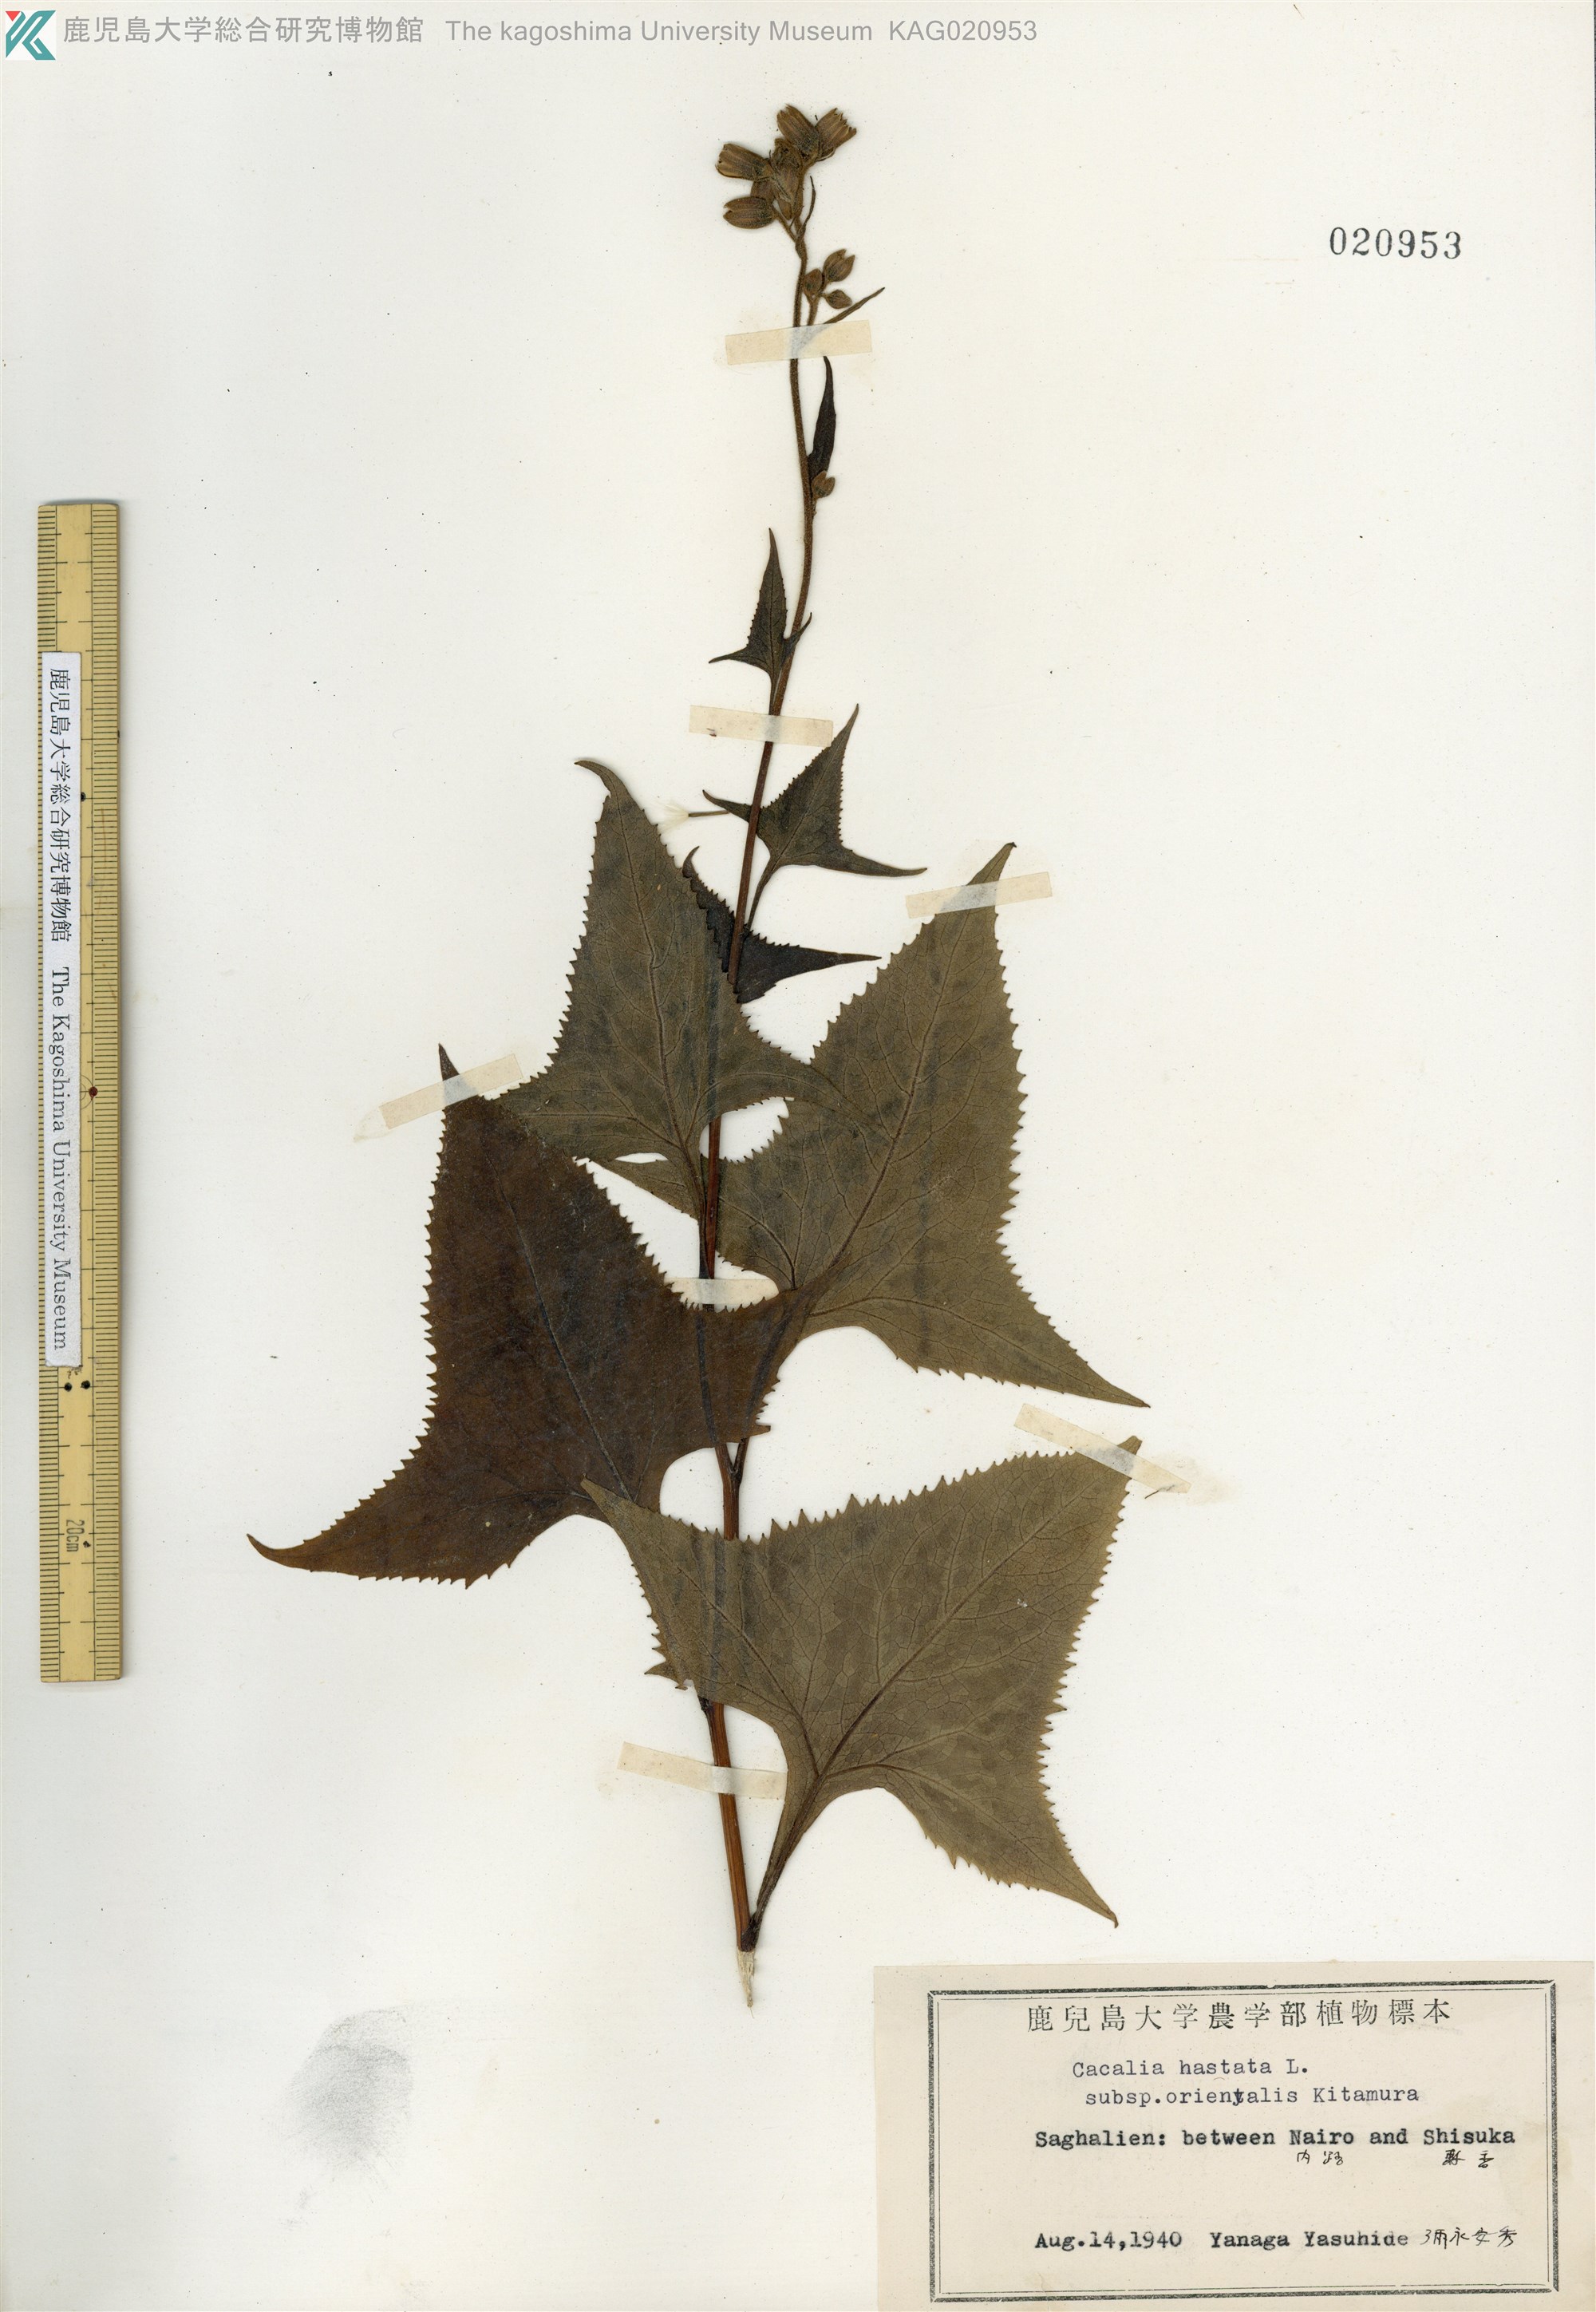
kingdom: Plantae
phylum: Tracheophyta
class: Magnoliopsida
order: Asterales
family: Asteraceae
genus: Parasenecio
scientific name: Parasenecio
